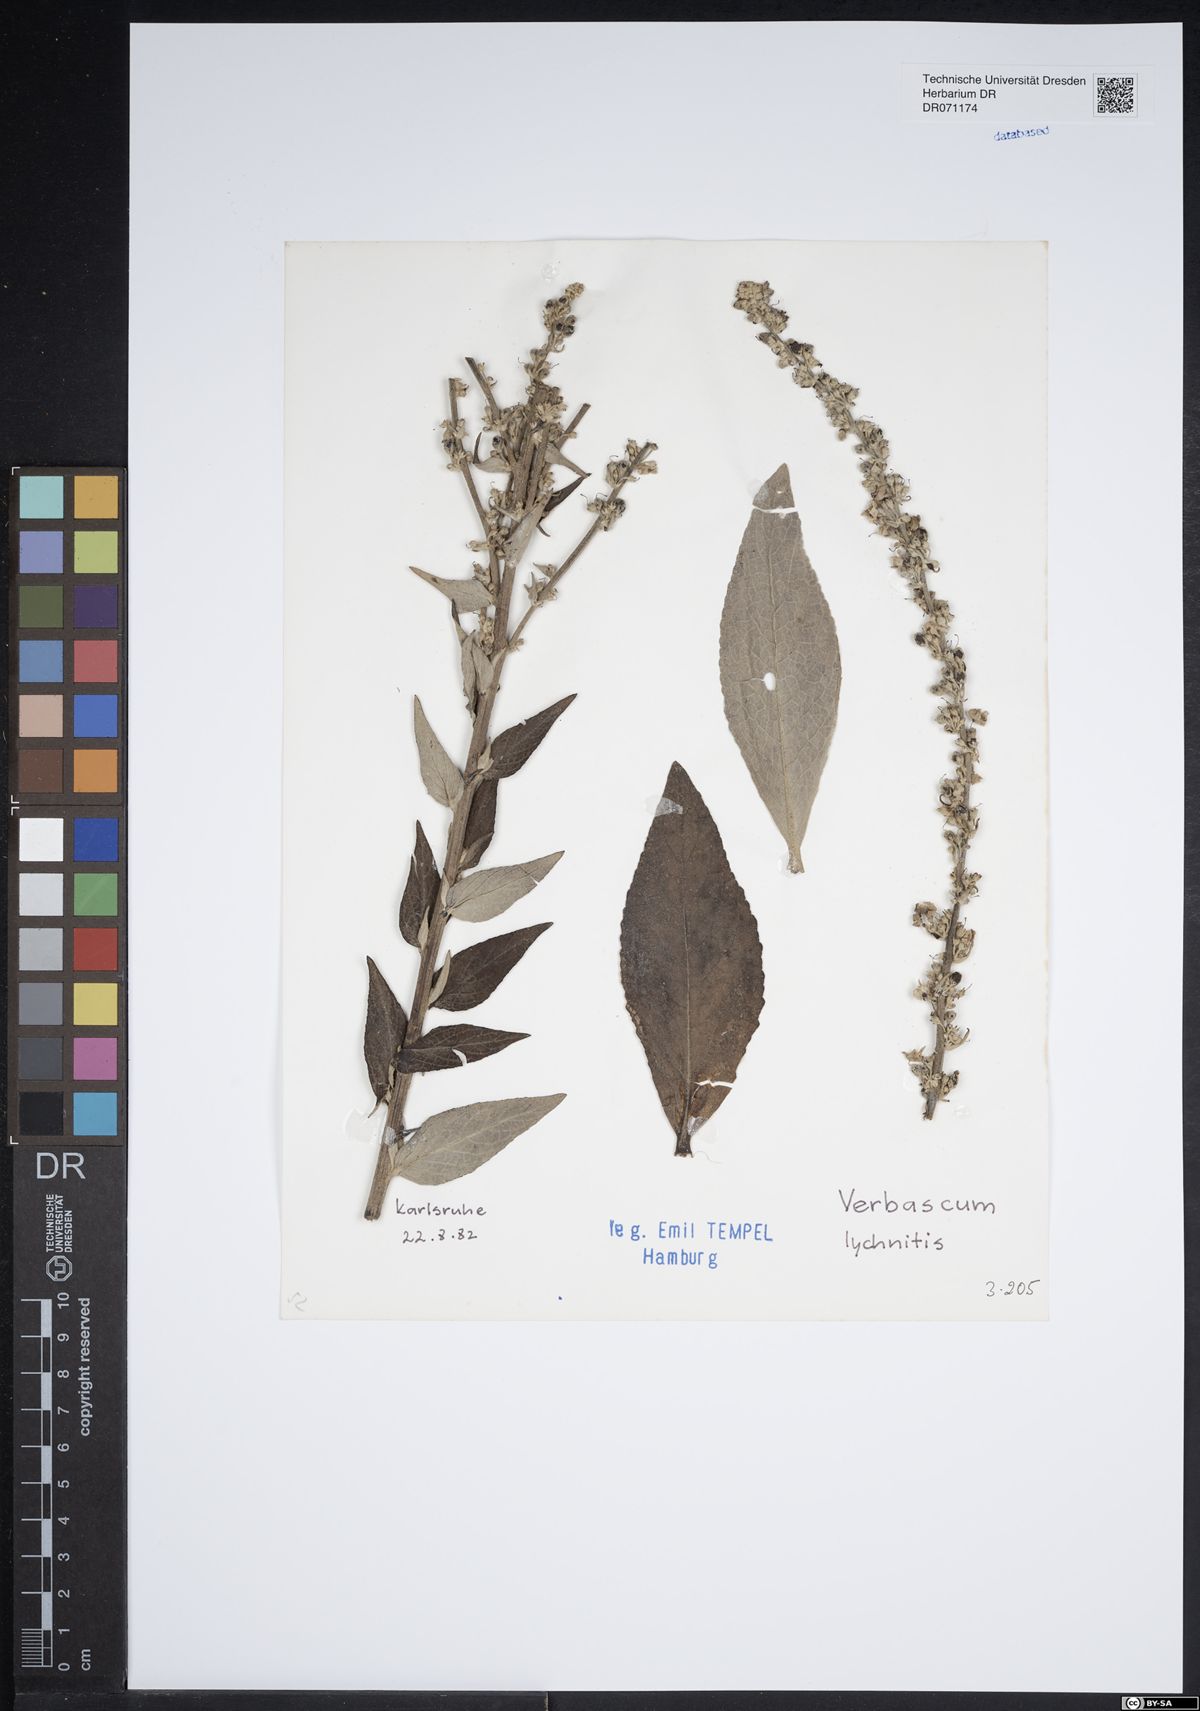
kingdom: Plantae
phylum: Tracheophyta
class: Magnoliopsida
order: Lamiales
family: Scrophulariaceae
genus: Verbascum
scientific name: Verbascum lychnitis
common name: White mullein
